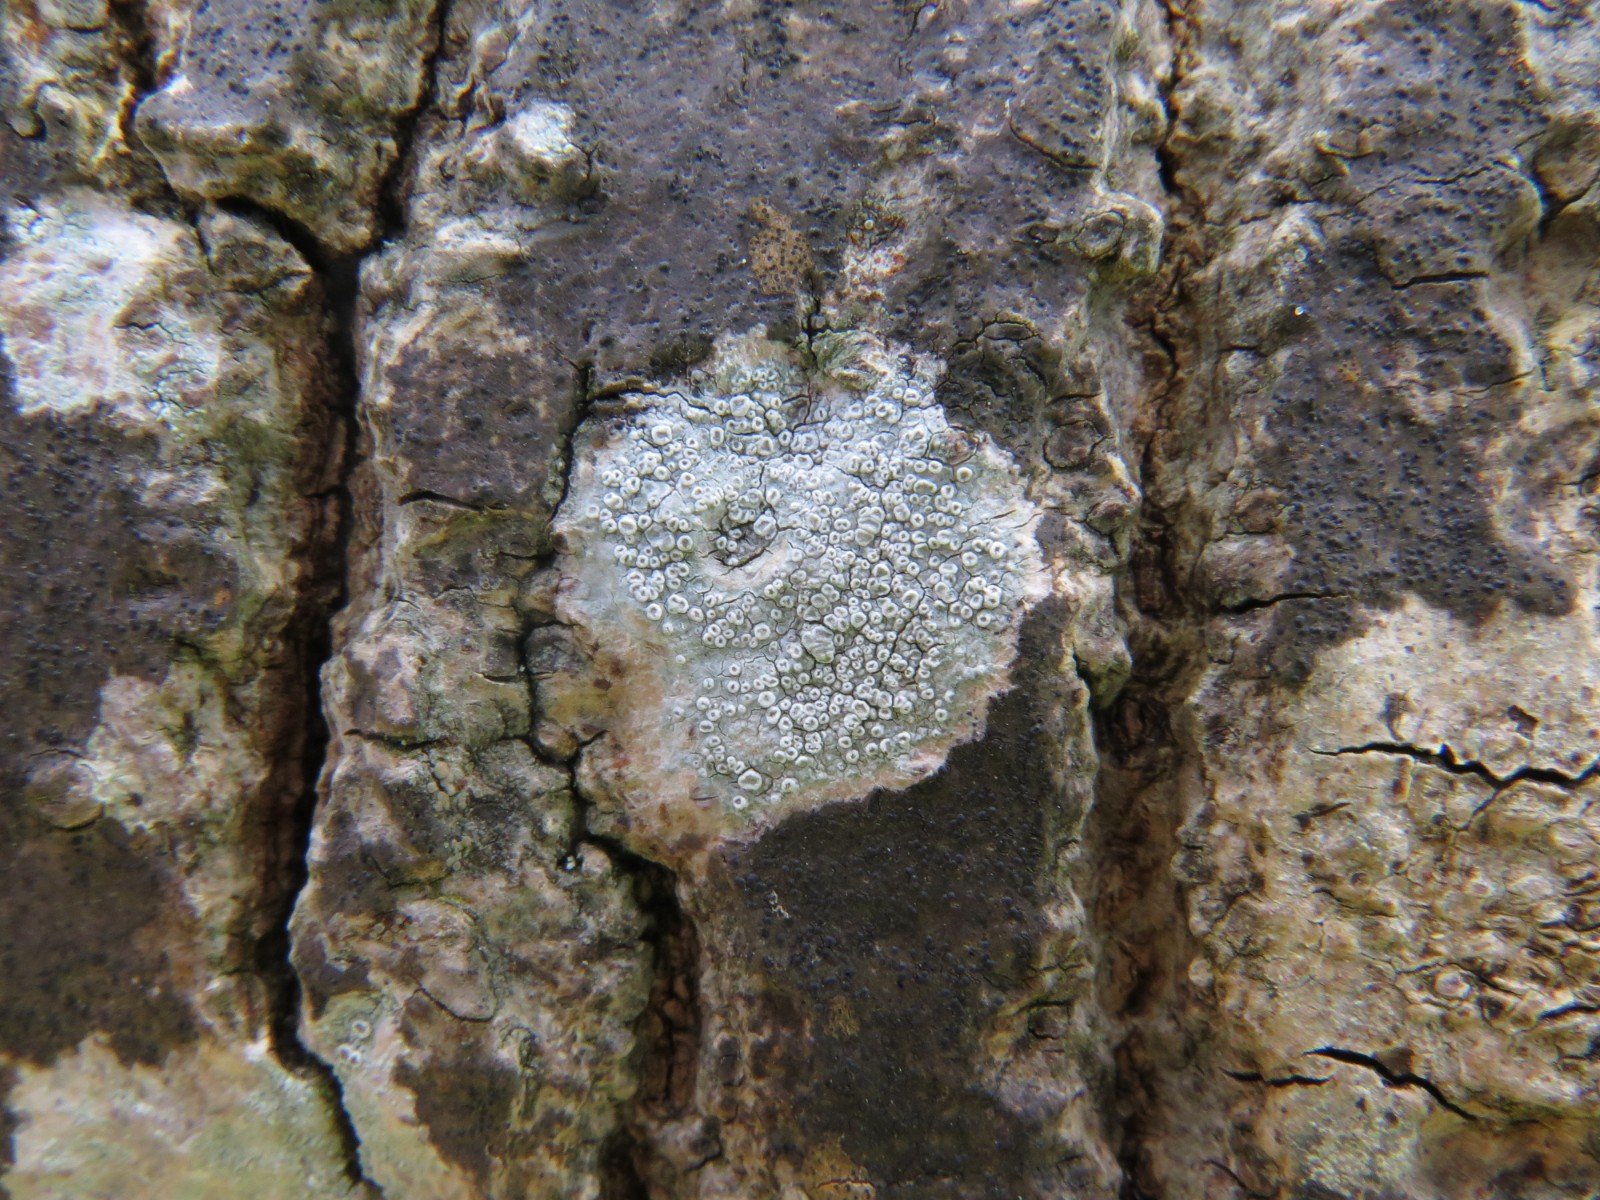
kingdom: Fungi
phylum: Ascomycota
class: Lecanoromycetes
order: Lecanorales
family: Lecanoraceae
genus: Glaucomaria
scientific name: Glaucomaria carpinea
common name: hviddugget kantskivelav
